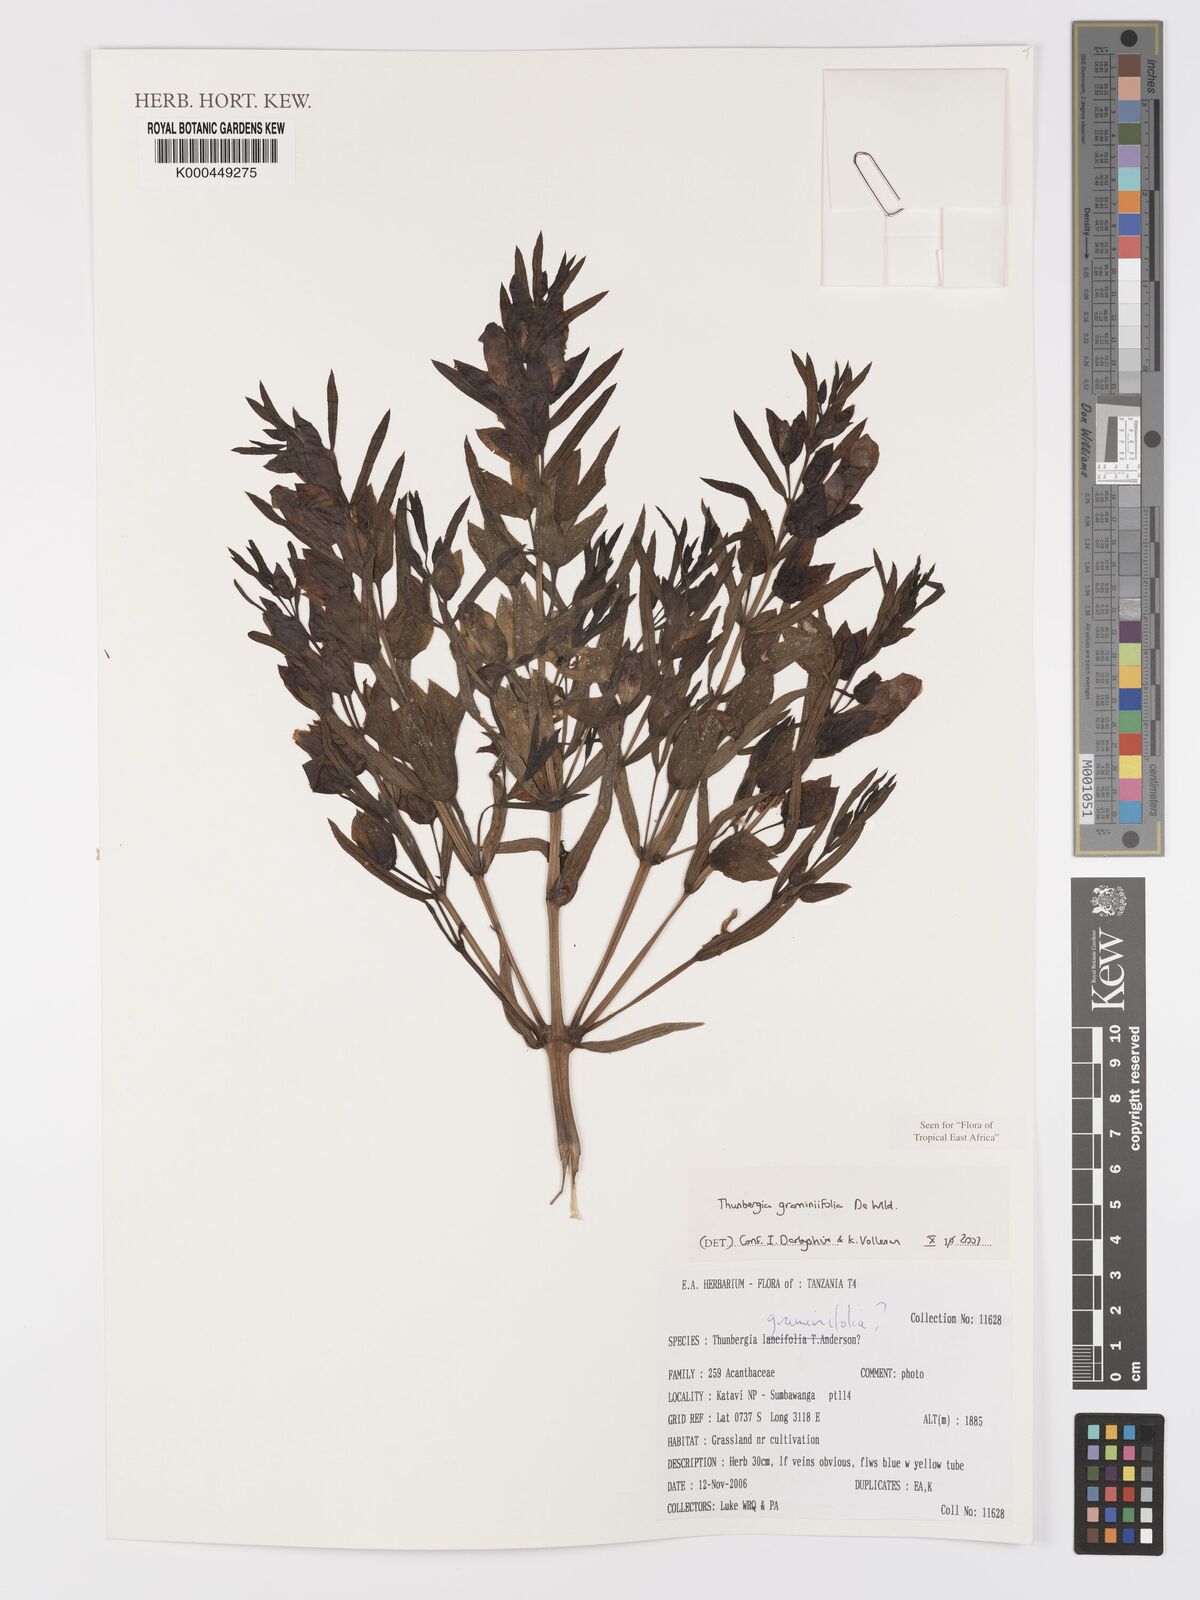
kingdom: Plantae
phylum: Tracheophyta
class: Magnoliopsida
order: Lamiales
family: Acanthaceae
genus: Thunbergia
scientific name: Thunbergia graminifolia
